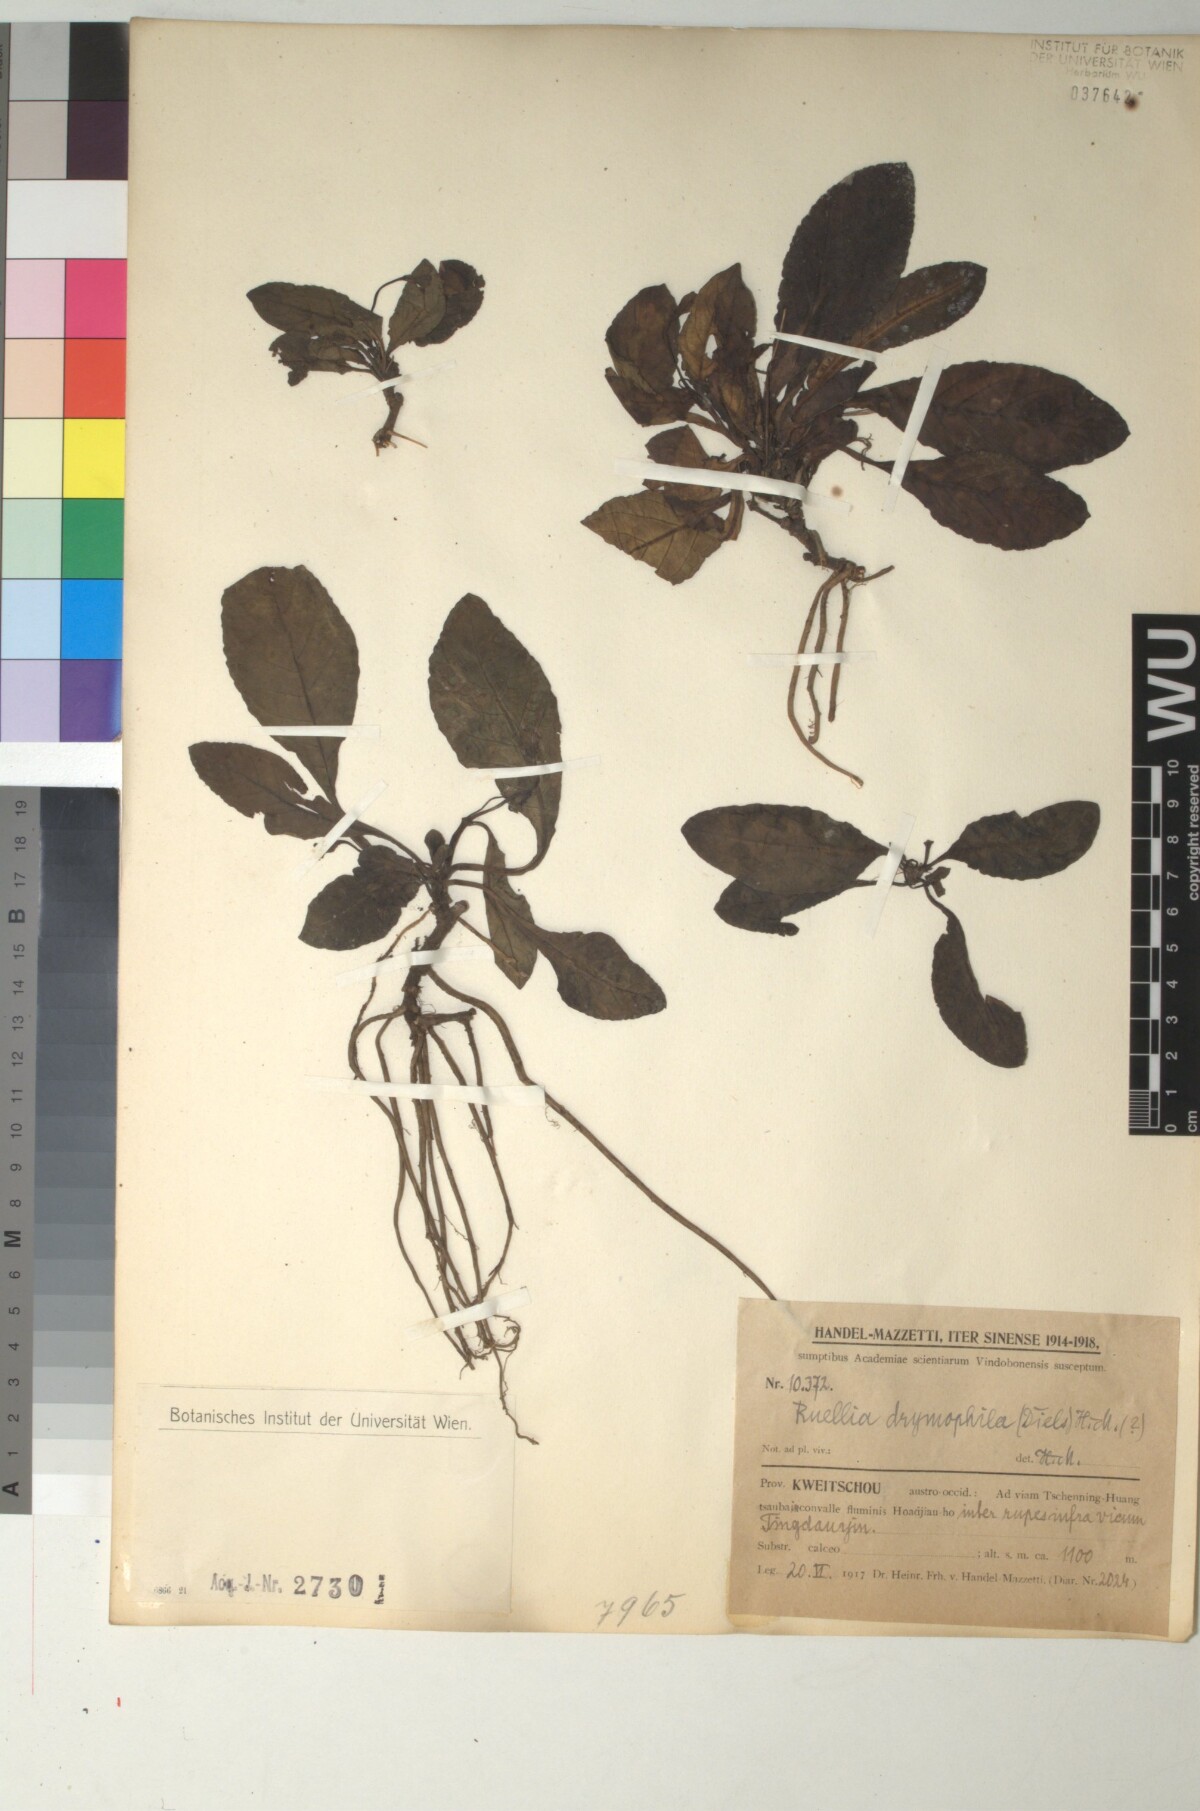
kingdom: Plantae
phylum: Tracheophyta
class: Magnoliopsida
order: Lamiales
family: Acanthaceae
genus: Pararuellia
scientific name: Pararuellia
